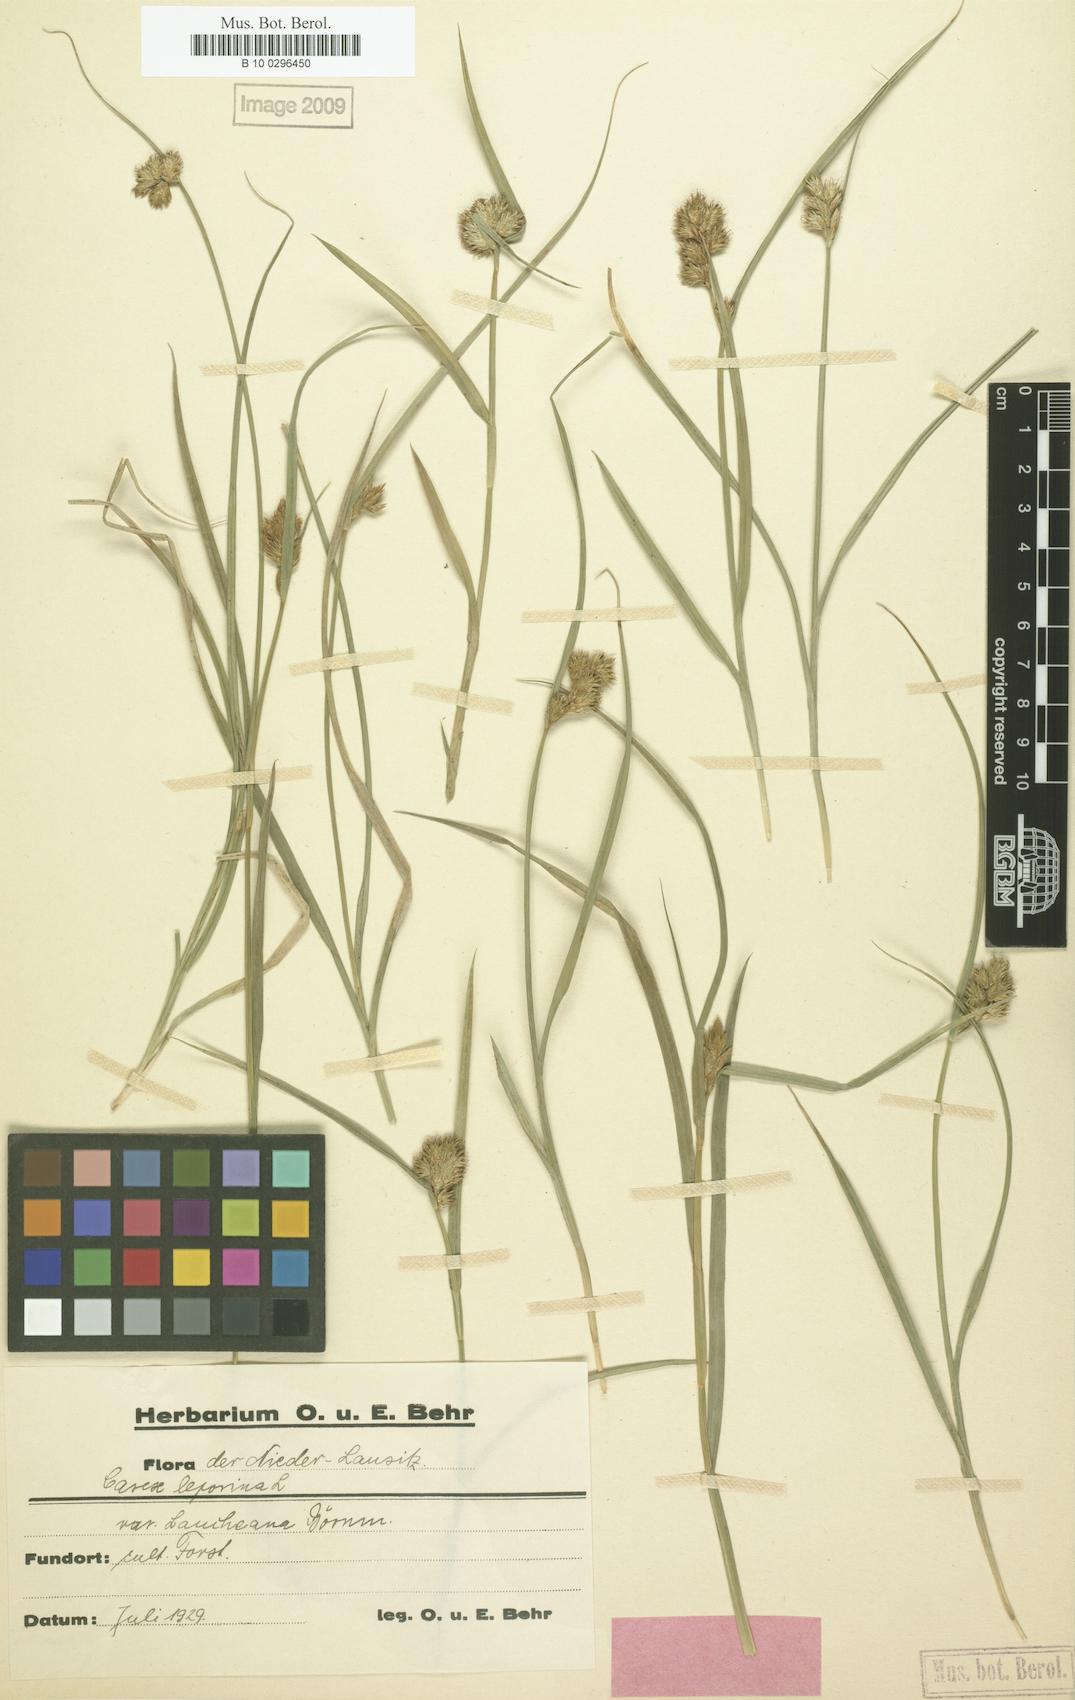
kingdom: Plantae
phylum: Tracheophyta
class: Liliopsida
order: Poales
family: Cyperaceae
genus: Carex
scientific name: Carex leporina
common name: Oval sedge
